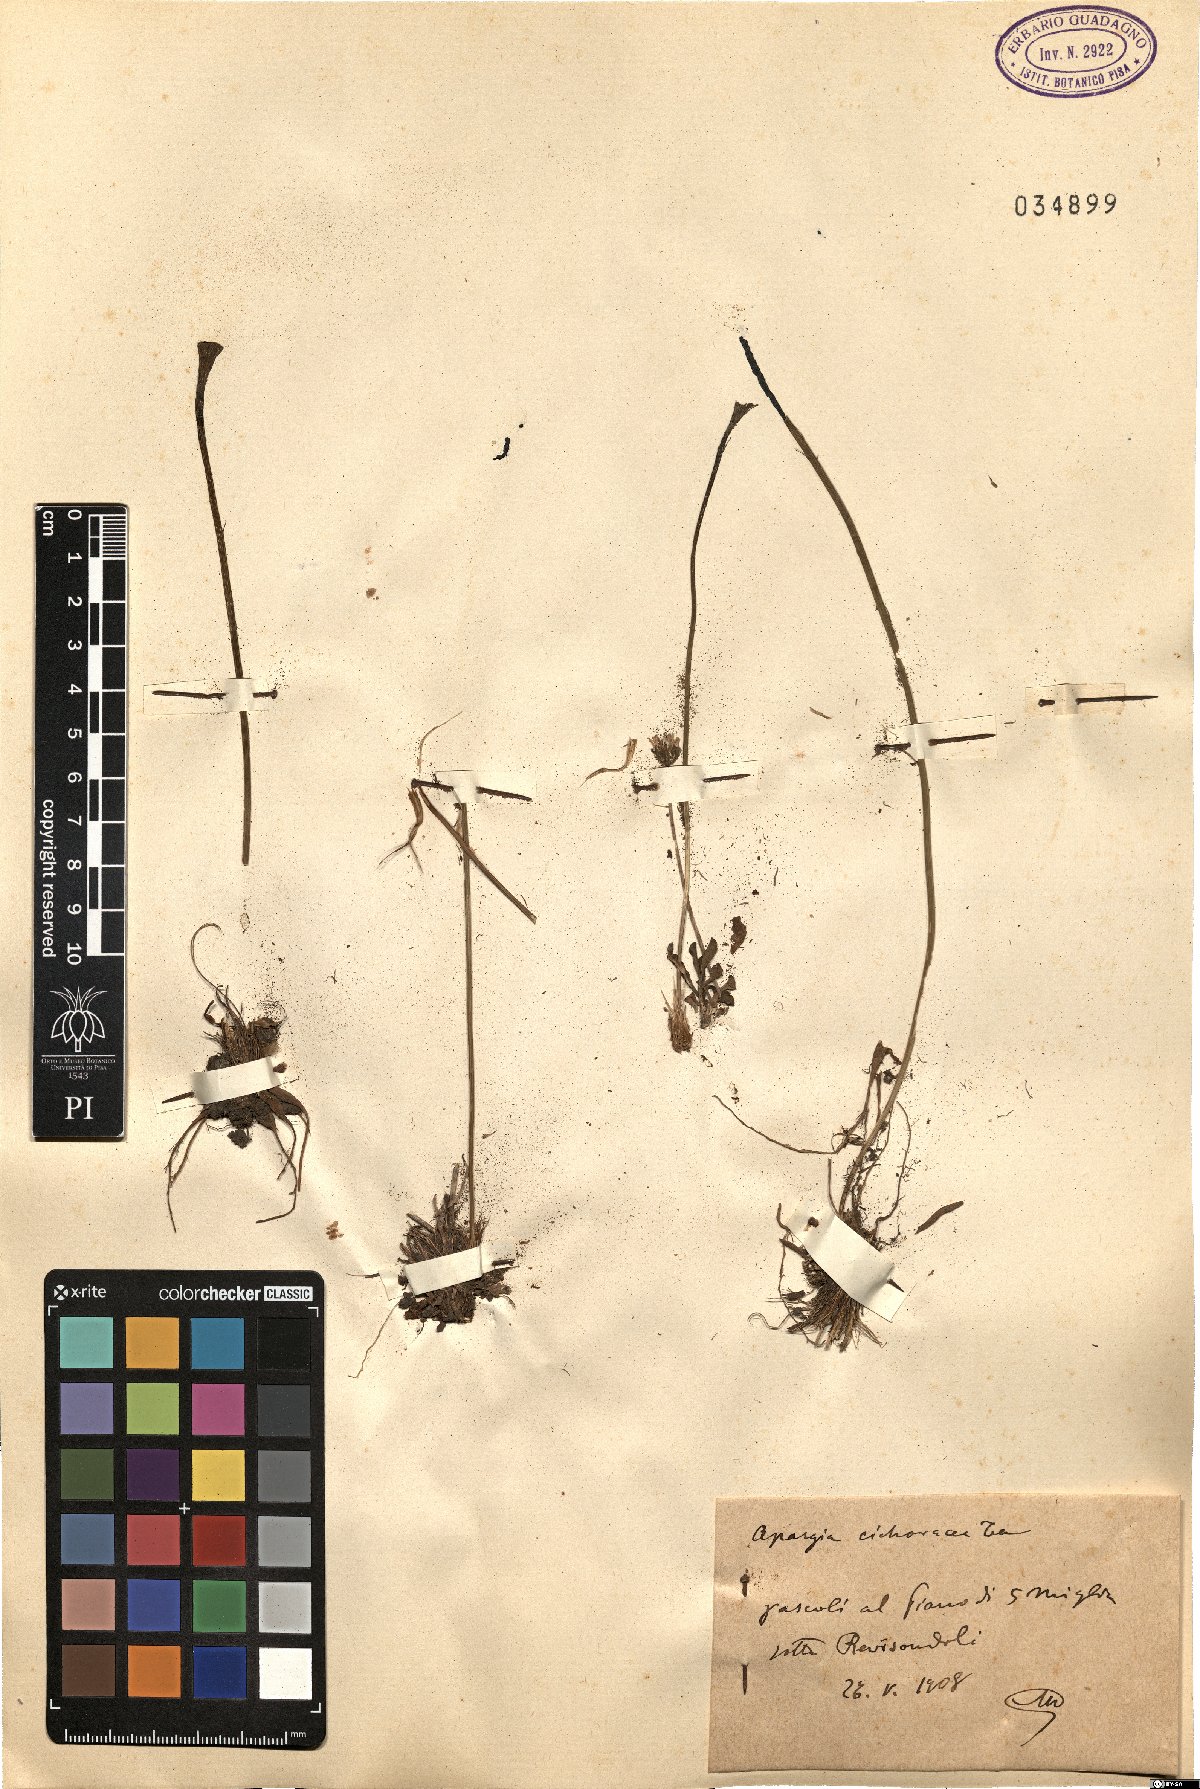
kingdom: Plantae
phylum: Tracheophyta
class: Magnoliopsida
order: Asterales
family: Asteraceae
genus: Scorzoneroides
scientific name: Scorzoneroides cichoriacea
